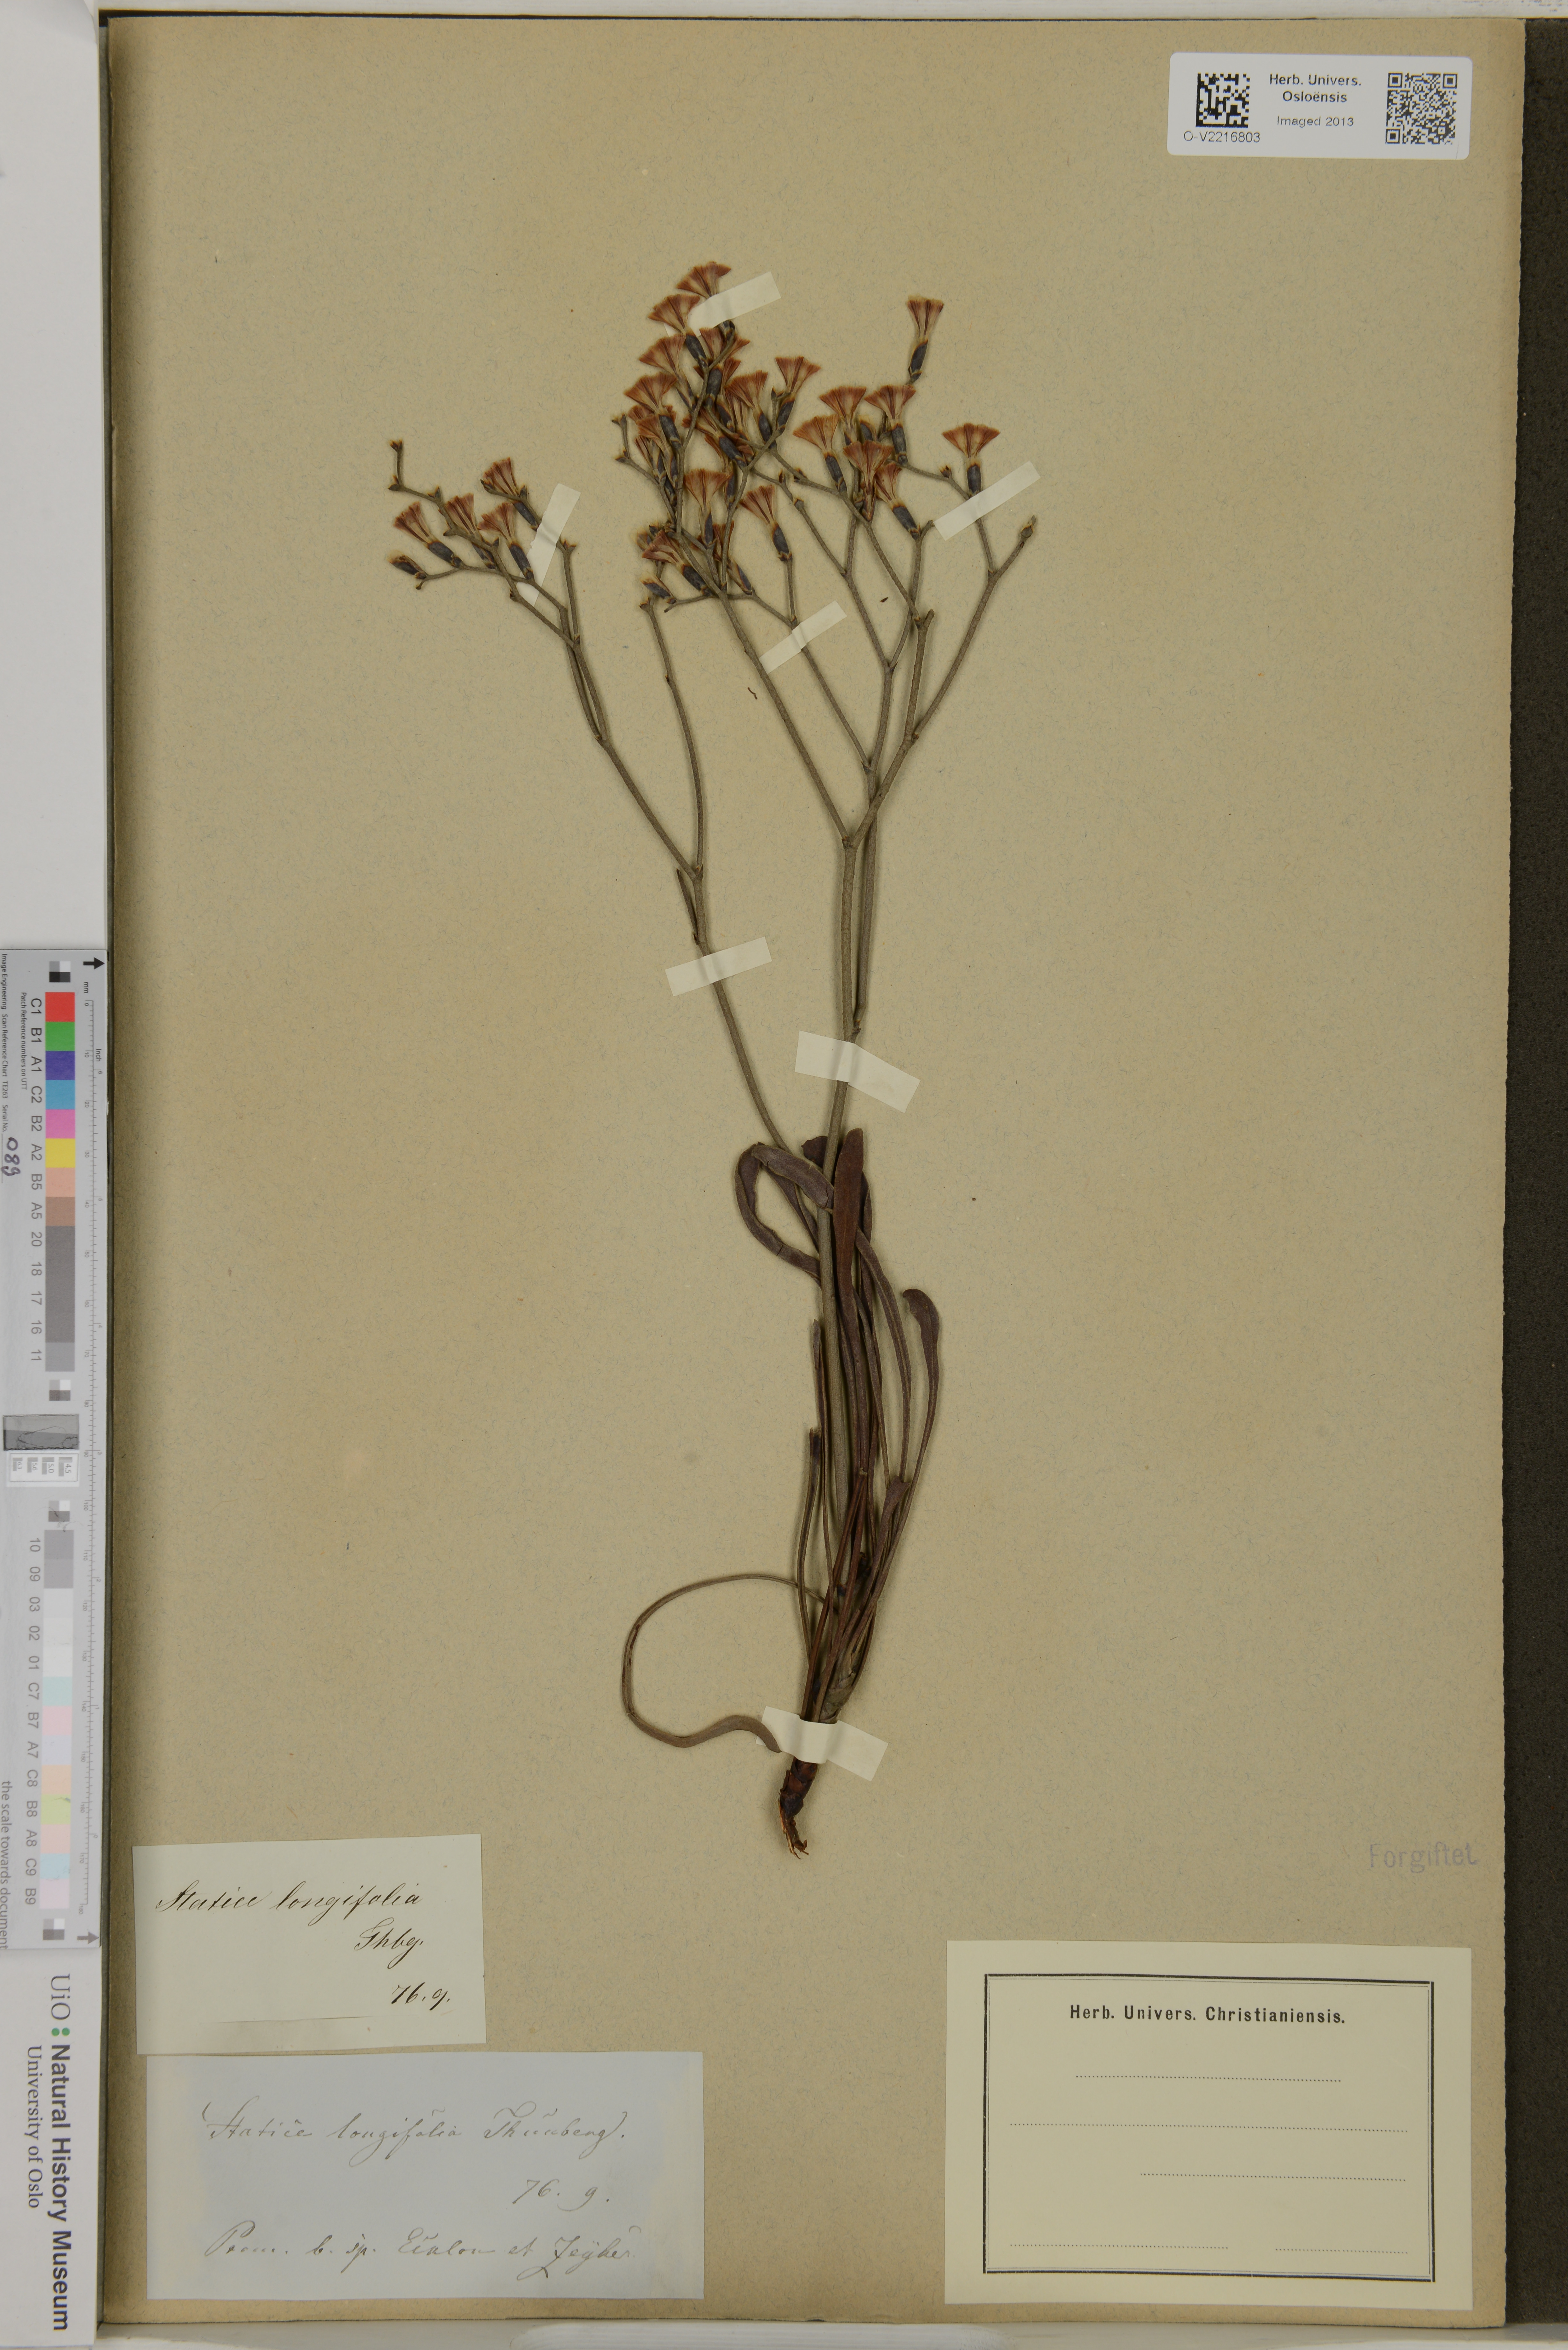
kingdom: Plantae
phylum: Tracheophyta
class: Magnoliopsida
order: Caryophyllales
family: Plumbaginaceae
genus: Limonium
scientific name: Limonium longifolium
